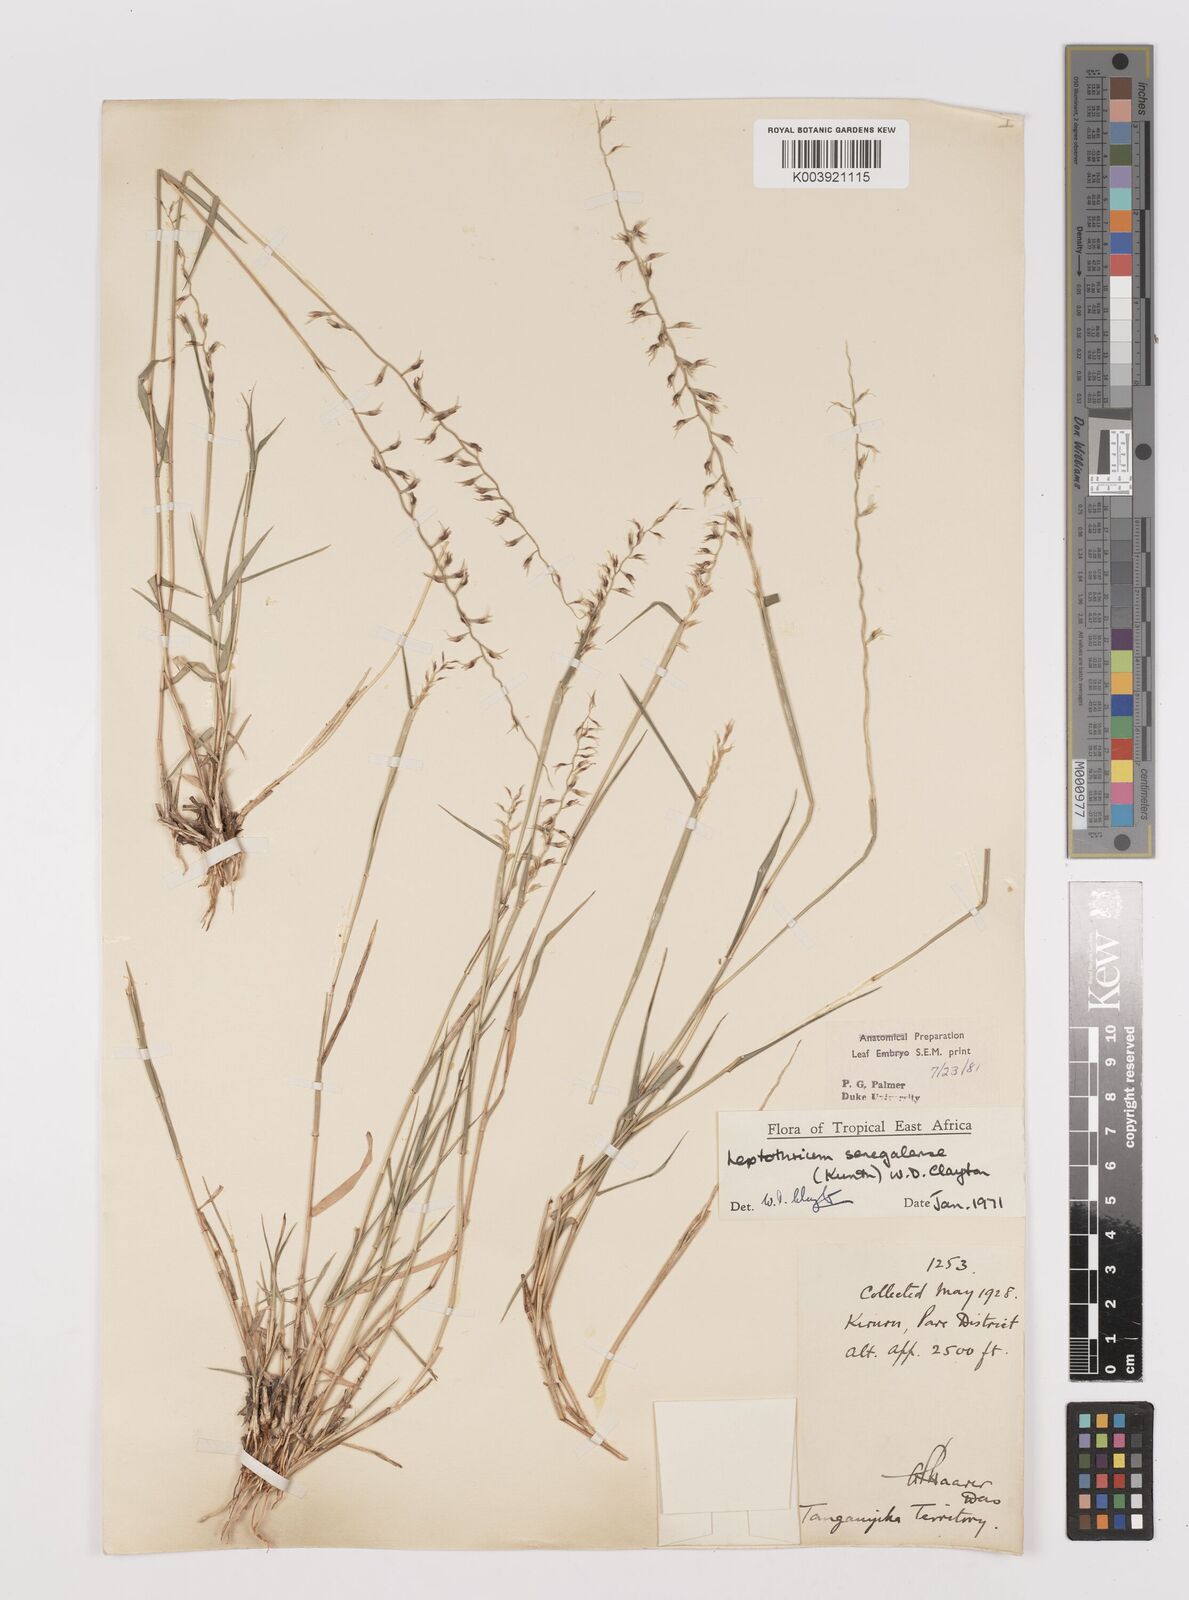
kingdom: Plantae
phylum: Tracheophyta
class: Liliopsida
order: Poales
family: Poaceae
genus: Leptothrium
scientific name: Leptothrium senegalense
